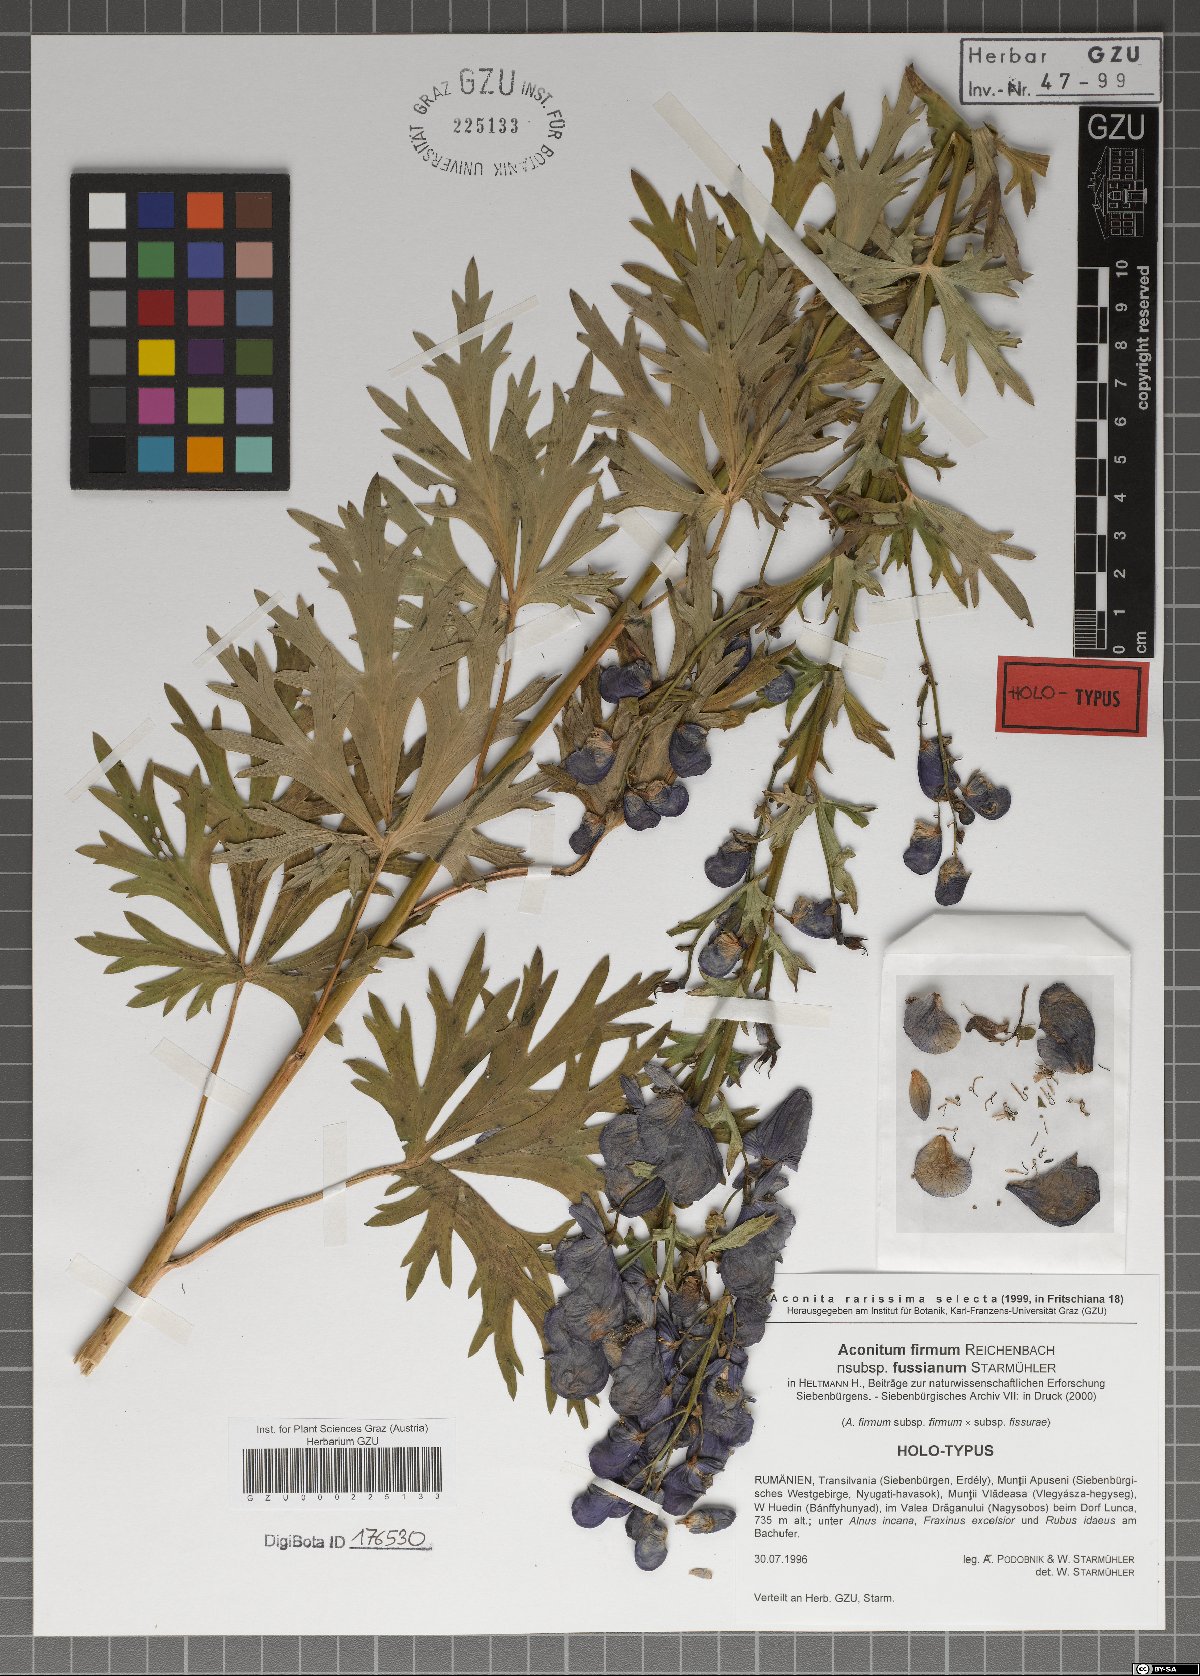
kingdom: Plantae
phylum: Tracheophyta
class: Magnoliopsida
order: Ranunculales
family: Ranunculaceae
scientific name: Ranunculaceae
